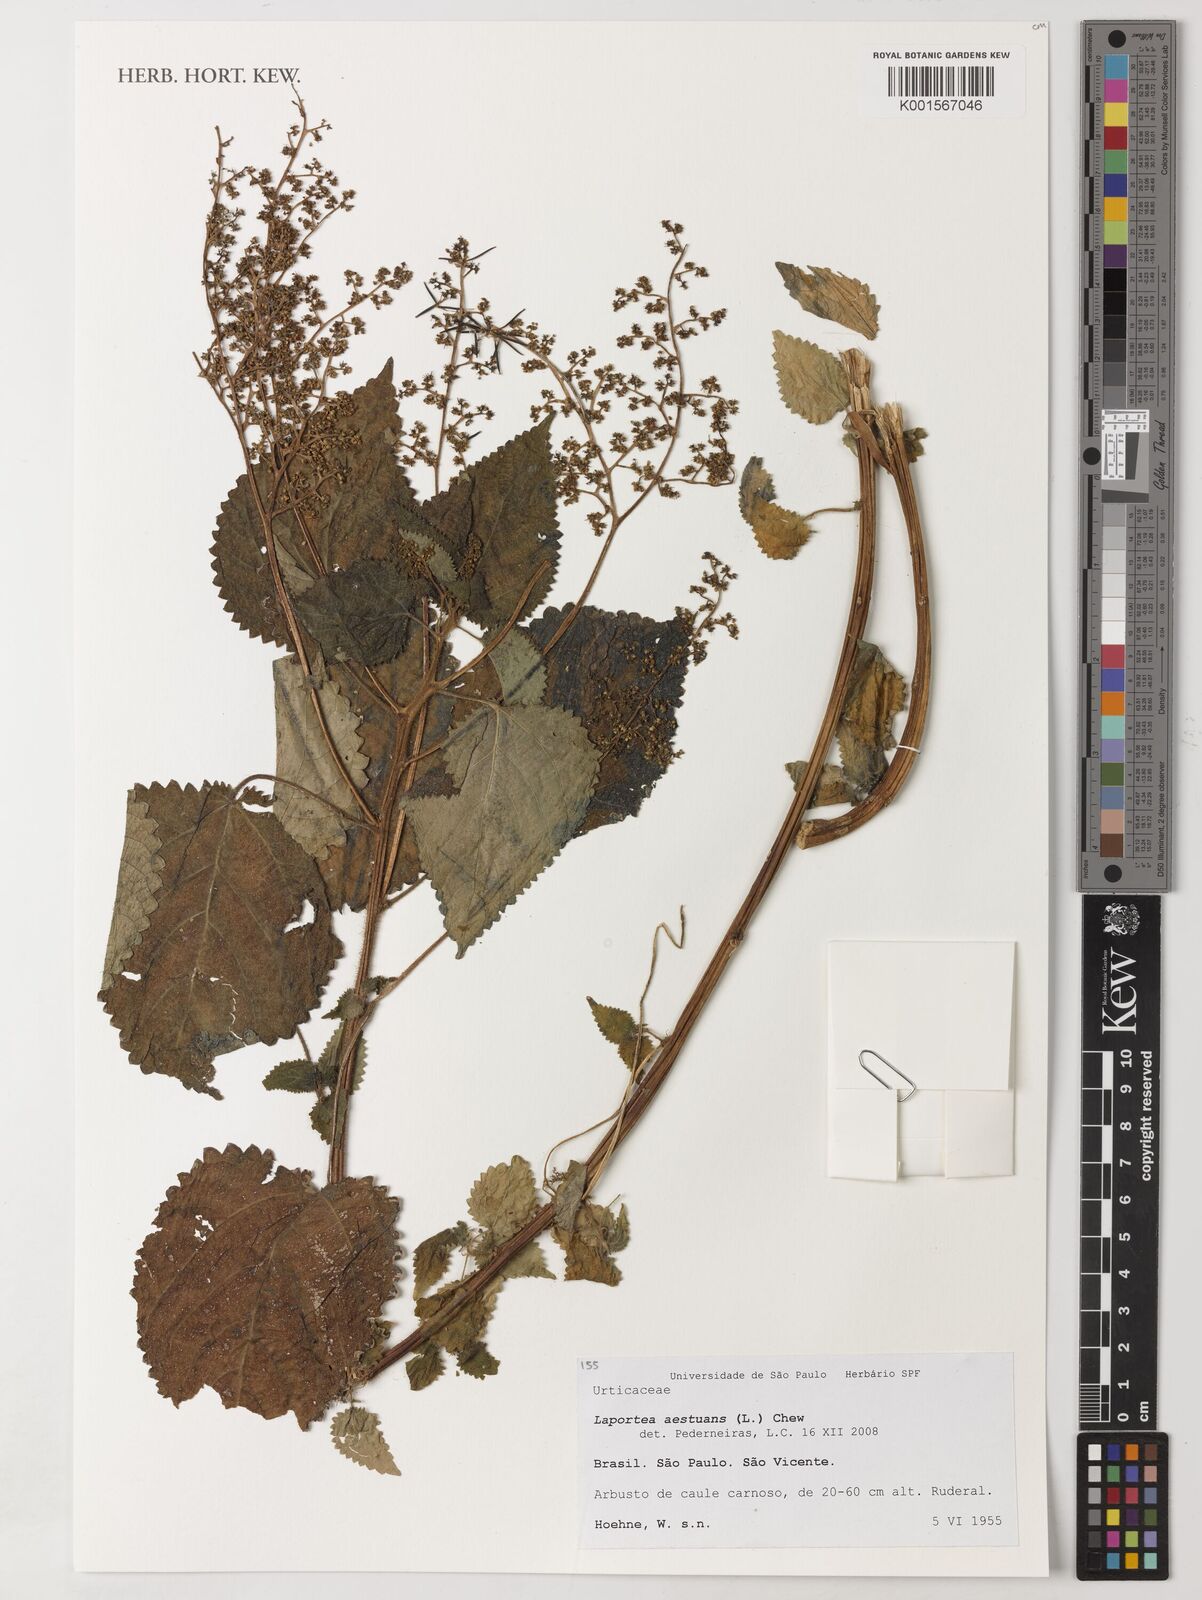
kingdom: Plantae
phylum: Tracheophyta
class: Magnoliopsida
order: Rosales
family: Urticaceae
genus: Laportea
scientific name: Laportea aestuans
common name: West indian woodnettle
